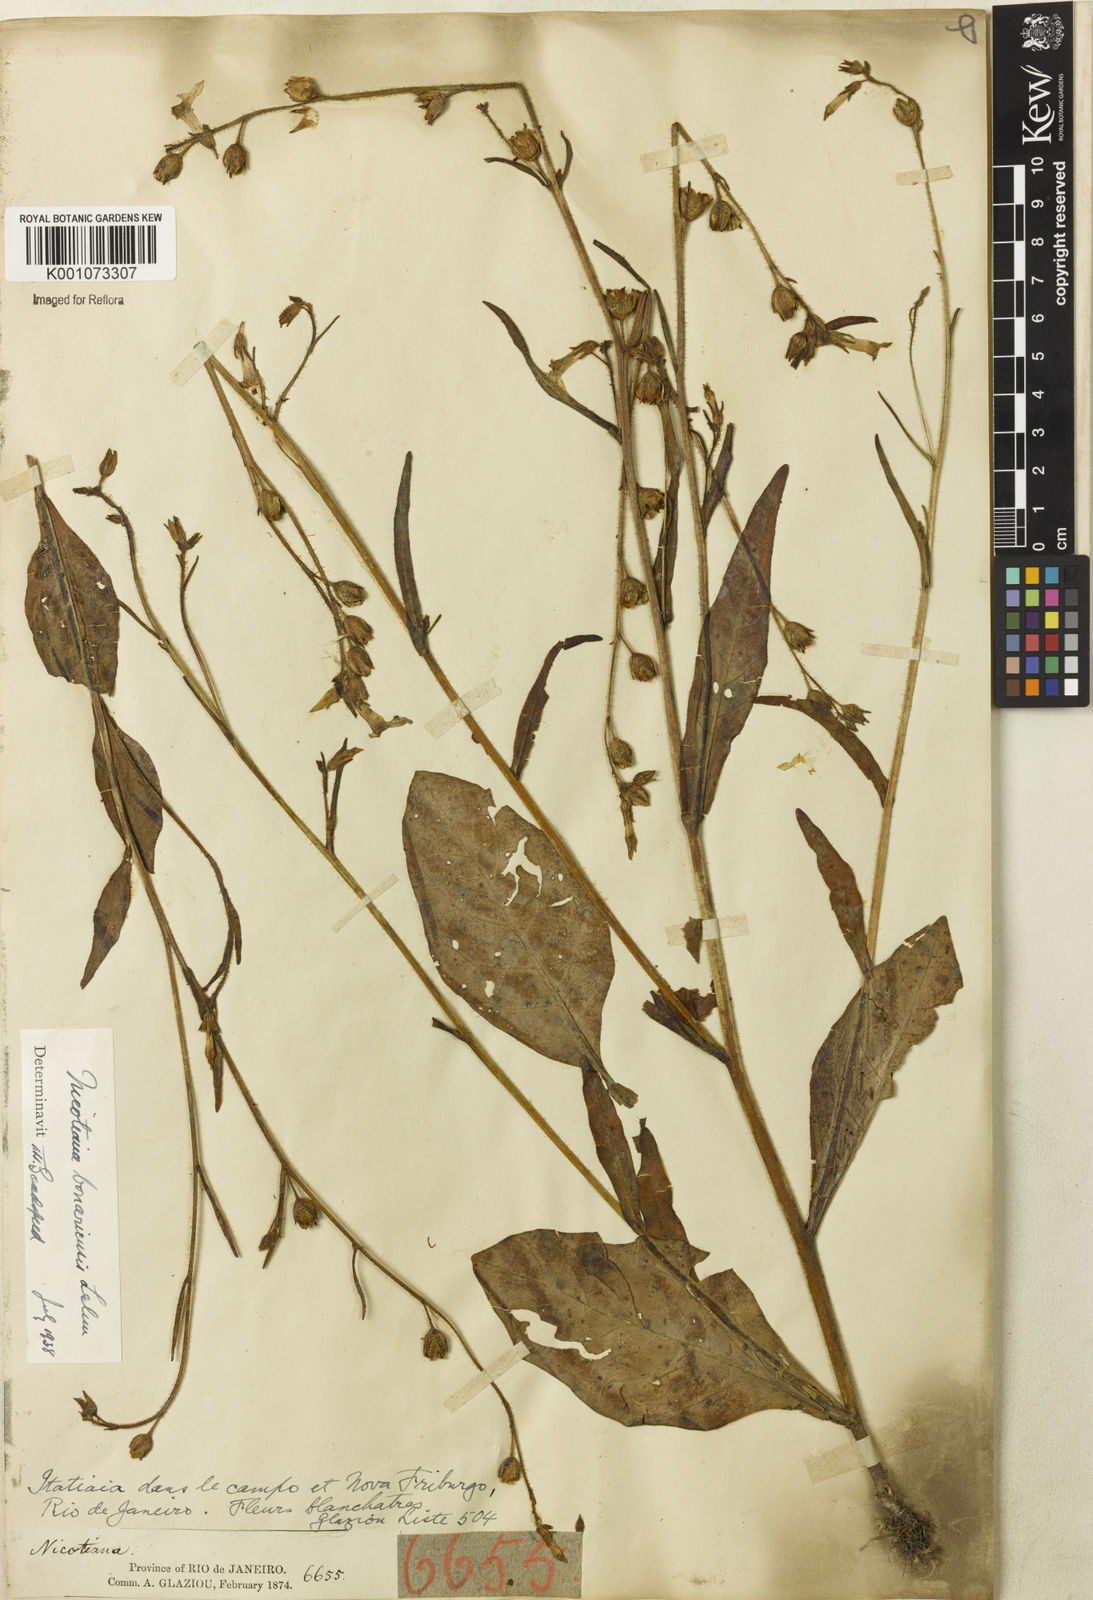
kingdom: Plantae
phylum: Tracheophyta
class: Magnoliopsida
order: Solanales
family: Solanaceae
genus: Nicotiana
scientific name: Nicotiana acuminata
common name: Manyflower tobacco
